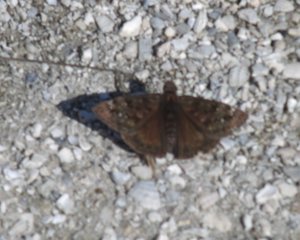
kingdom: Animalia
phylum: Arthropoda
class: Insecta
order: Lepidoptera
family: Hesperiidae
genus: Gesta
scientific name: Gesta
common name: Horace's Duskywing
